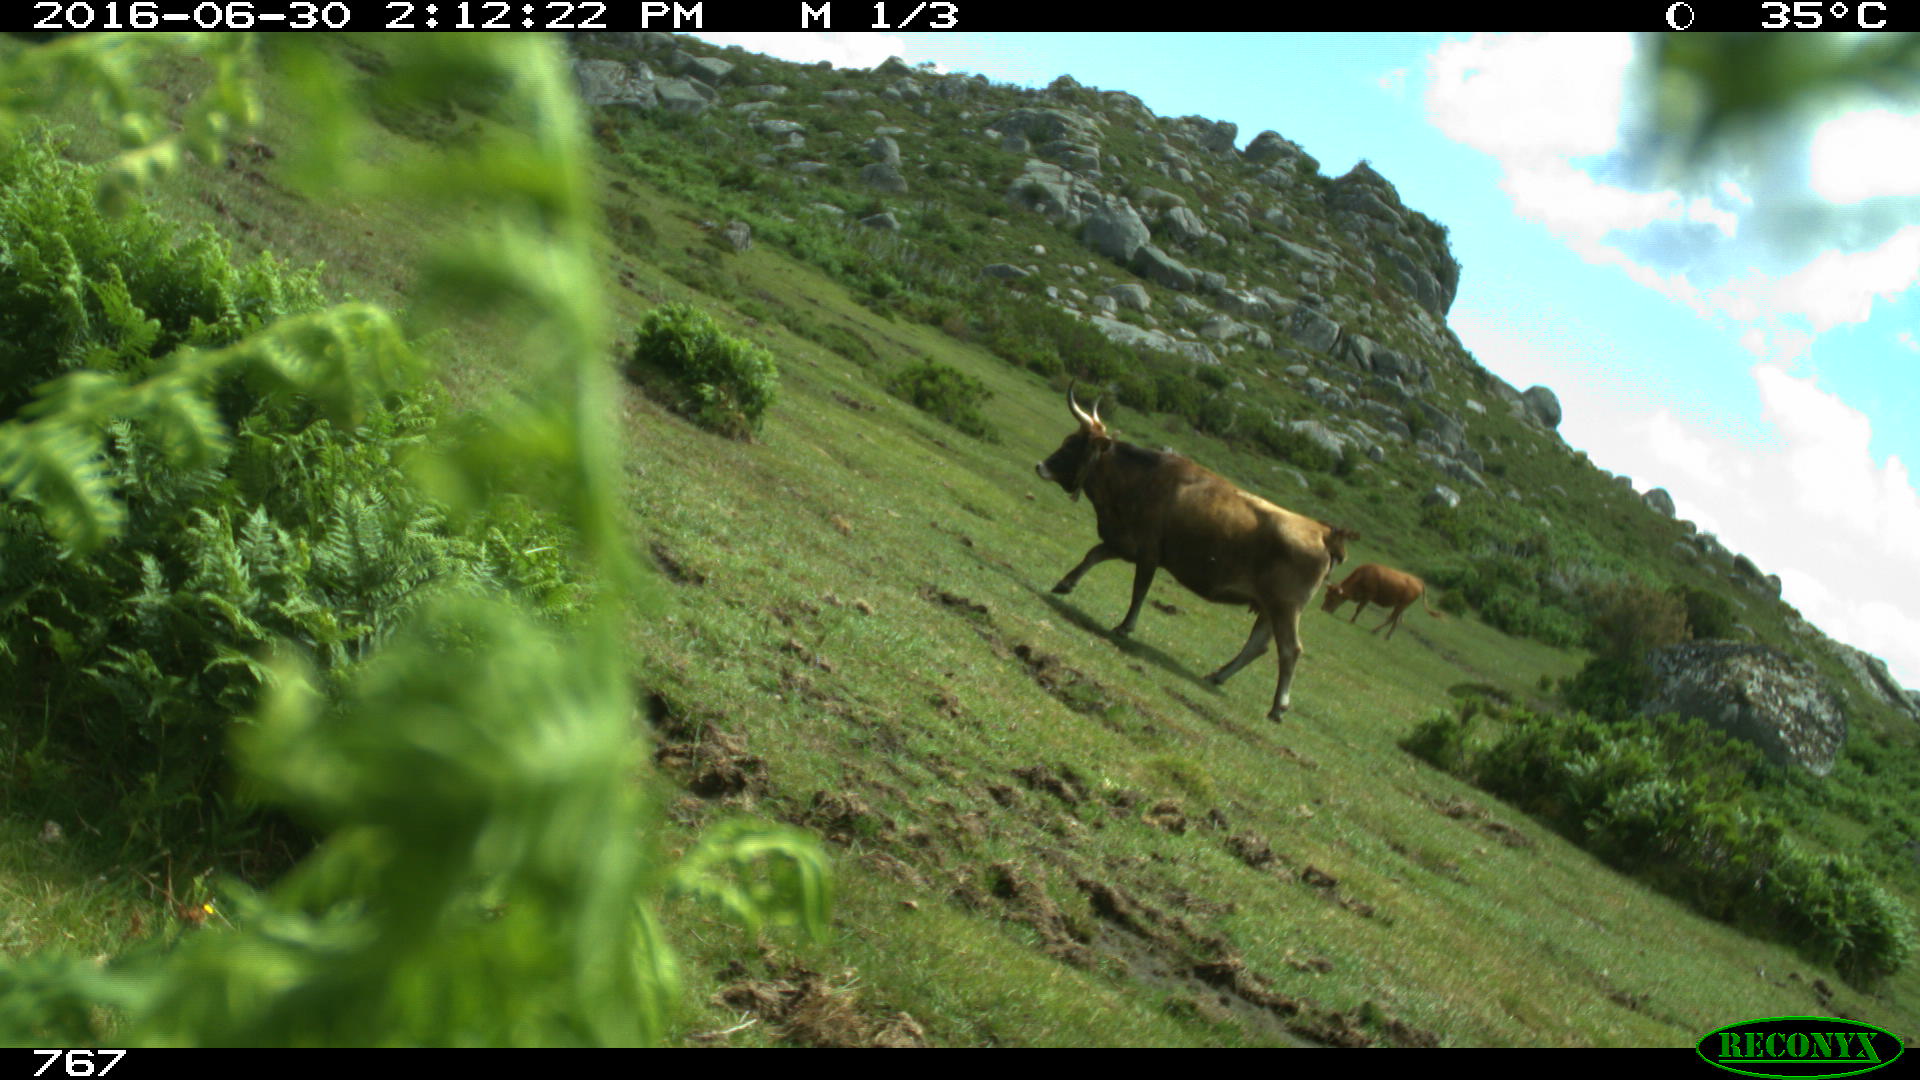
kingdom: Animalia
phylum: Chordata
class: Mammalia
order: Artiodactyla
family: Bovidae
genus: Bos
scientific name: Bos taurus
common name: Domesticated cattle
